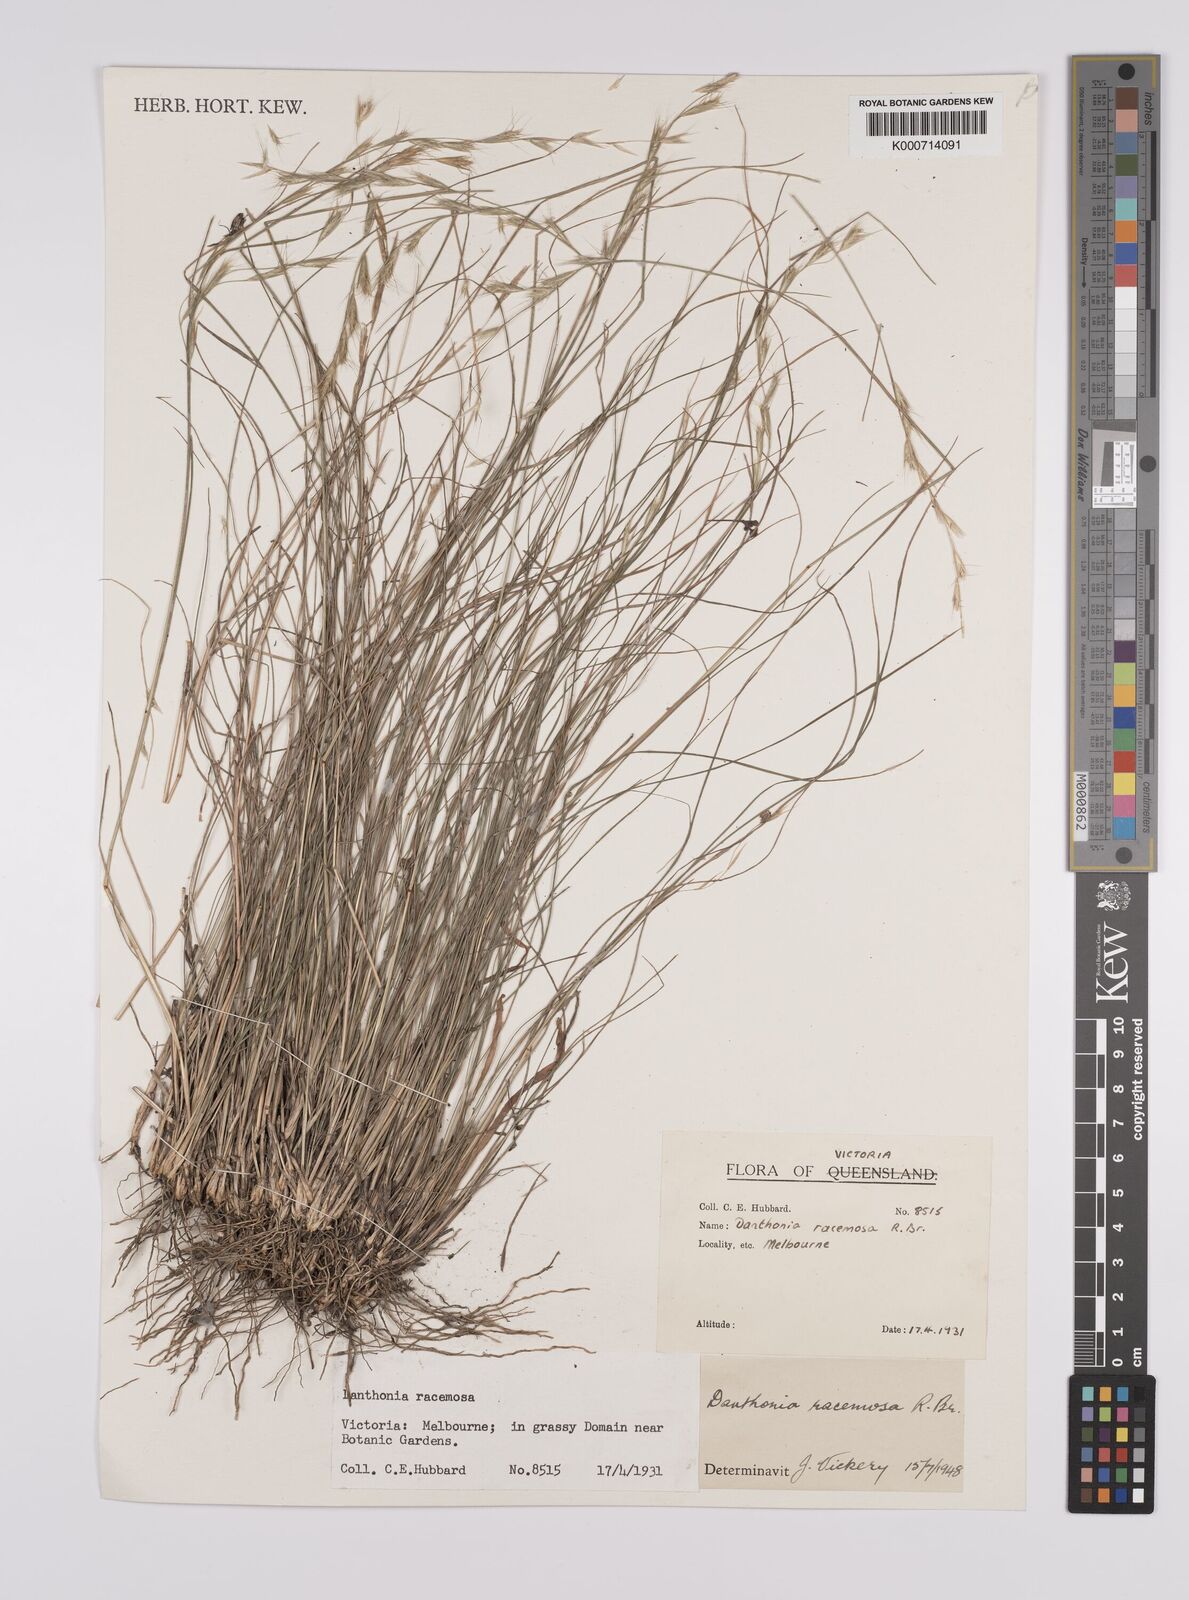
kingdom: Plantae
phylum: Tracheophyta
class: Liliopsida
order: Poales
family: Poaceae
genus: Rytidosperma
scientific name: Rytidosperma racemosum
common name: Wallaby-grass
